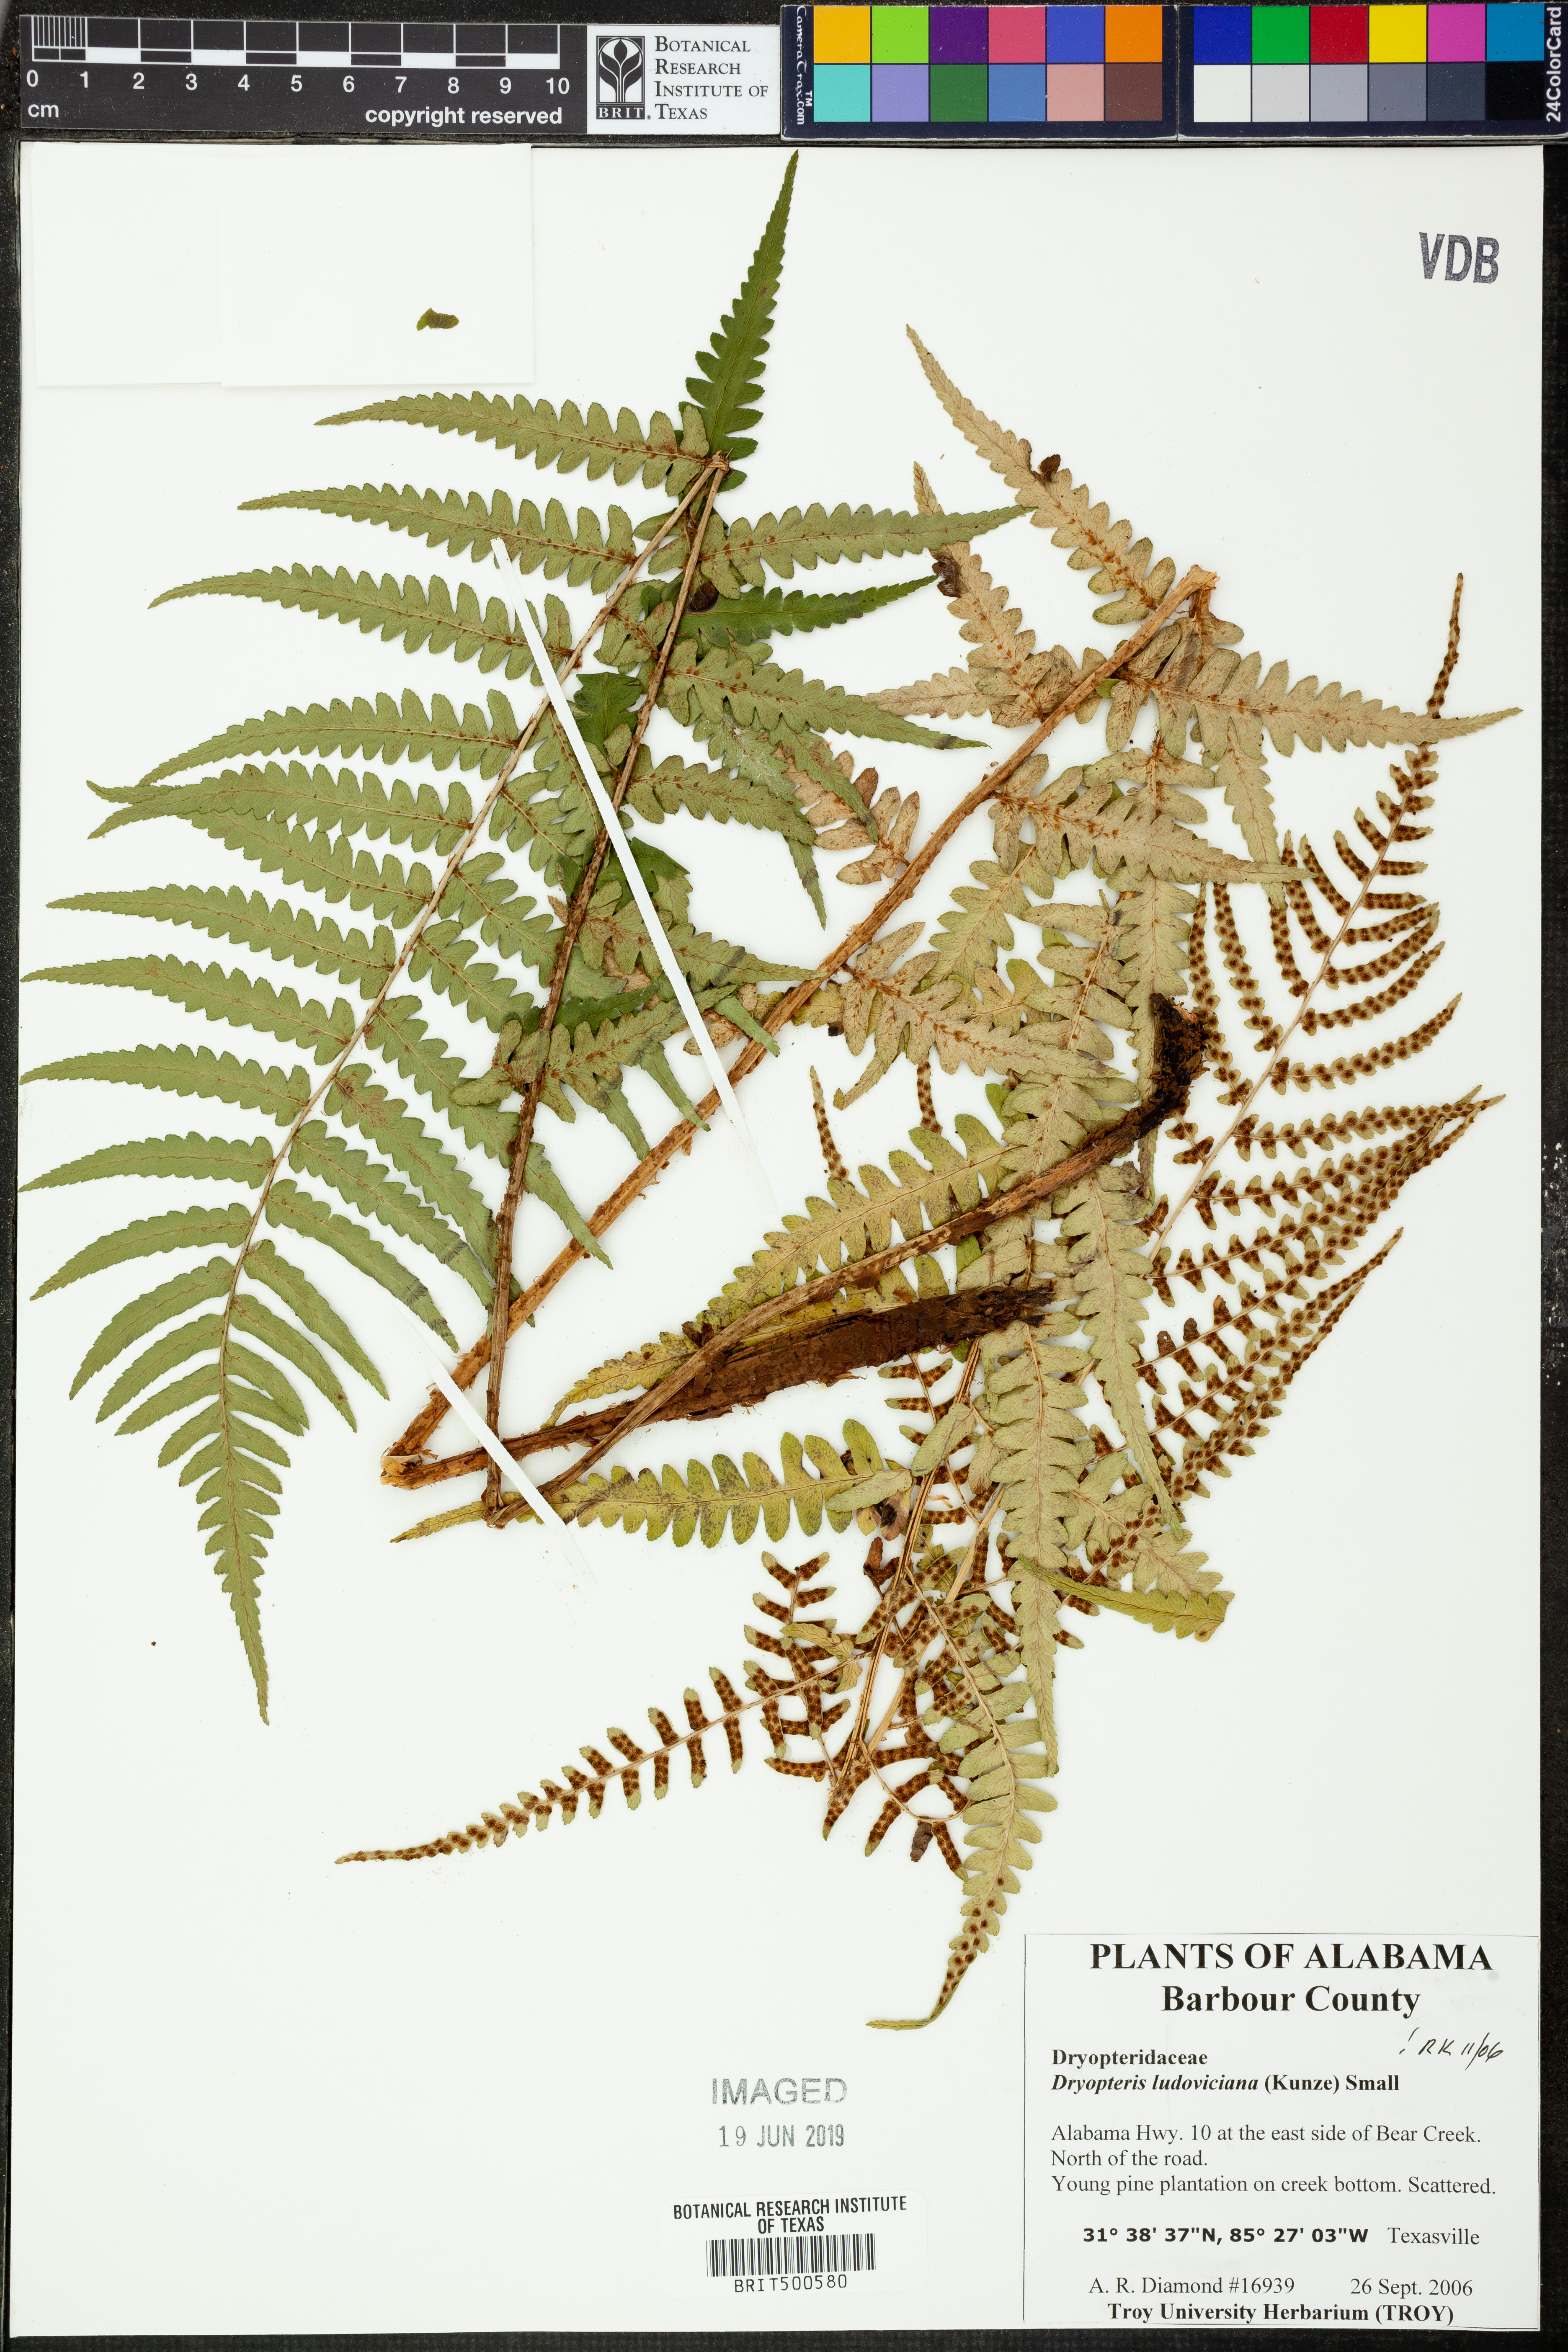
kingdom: Plantae
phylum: Tracheophyta
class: Polypodiopsida
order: Polypodiales
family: Dryopteridaceae
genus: Dryopteris
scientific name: Dryopteris ludoviciana
